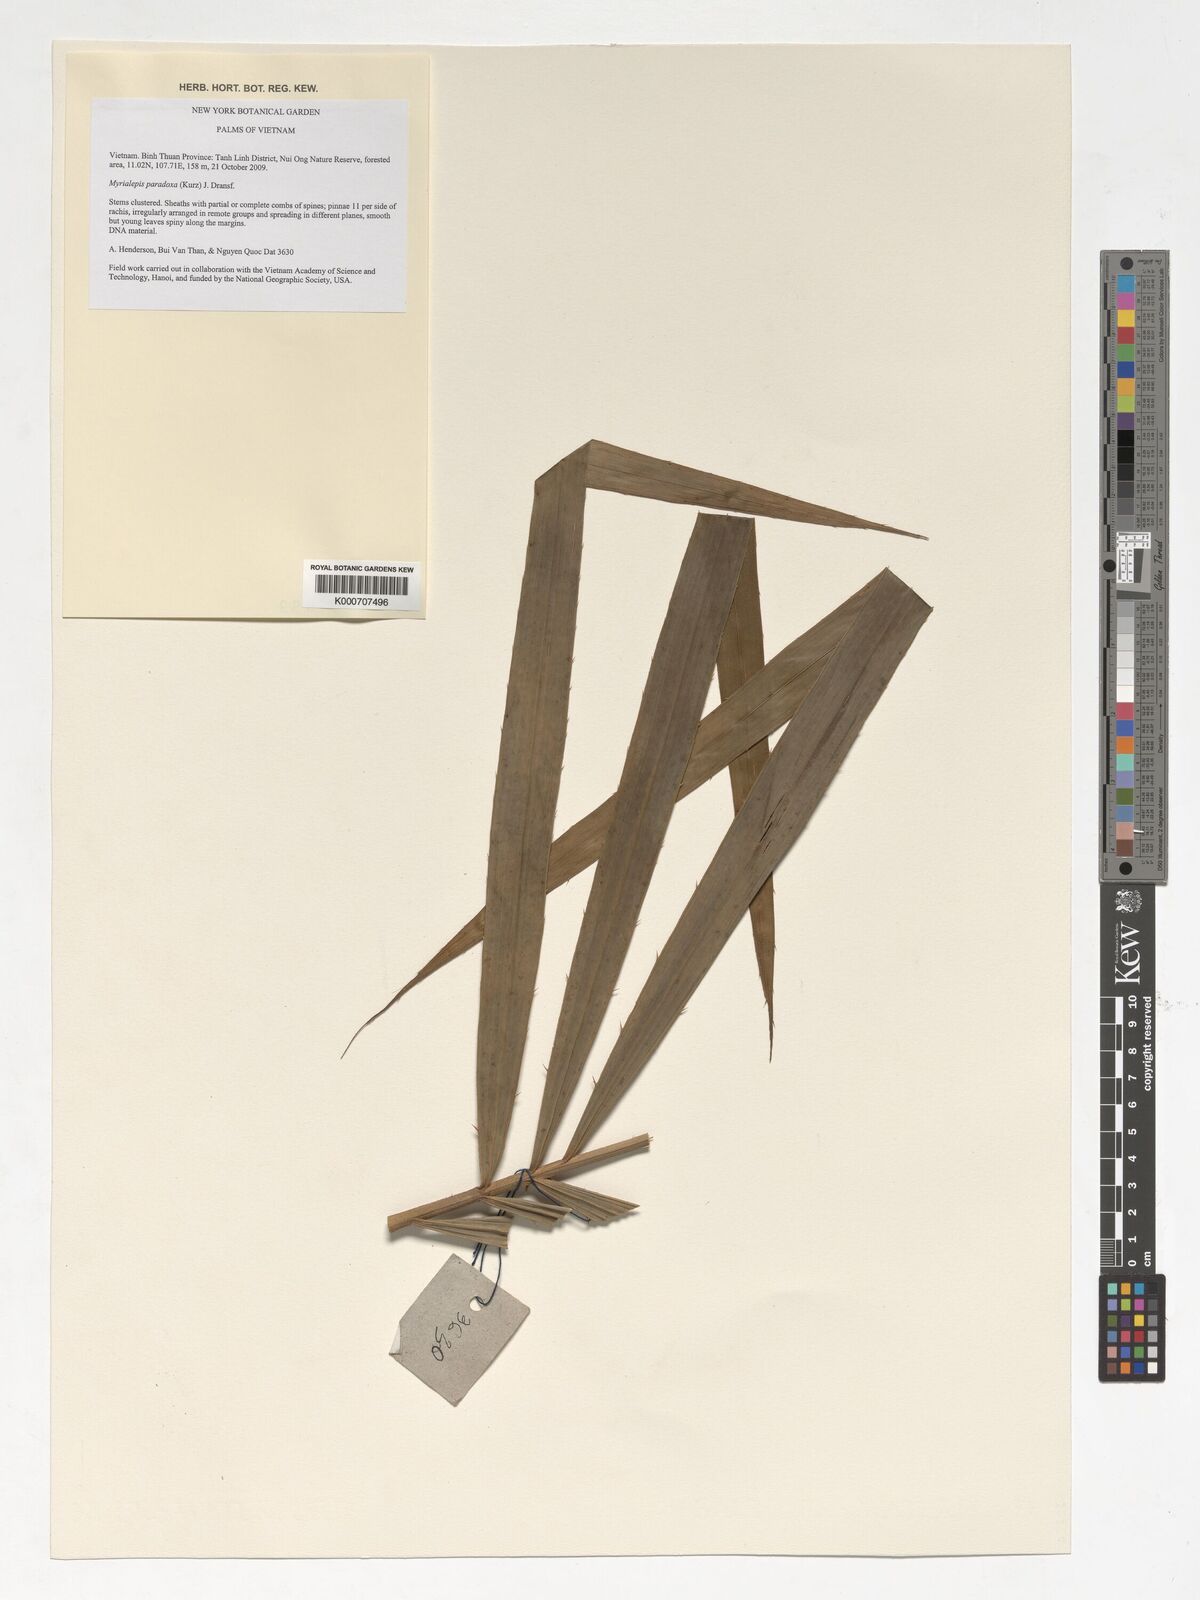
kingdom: Plantae
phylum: Tracheophyta
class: Liliopsida
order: Arecales
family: Arecaceae
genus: Myrialepis
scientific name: Myrialepis paradoxa
